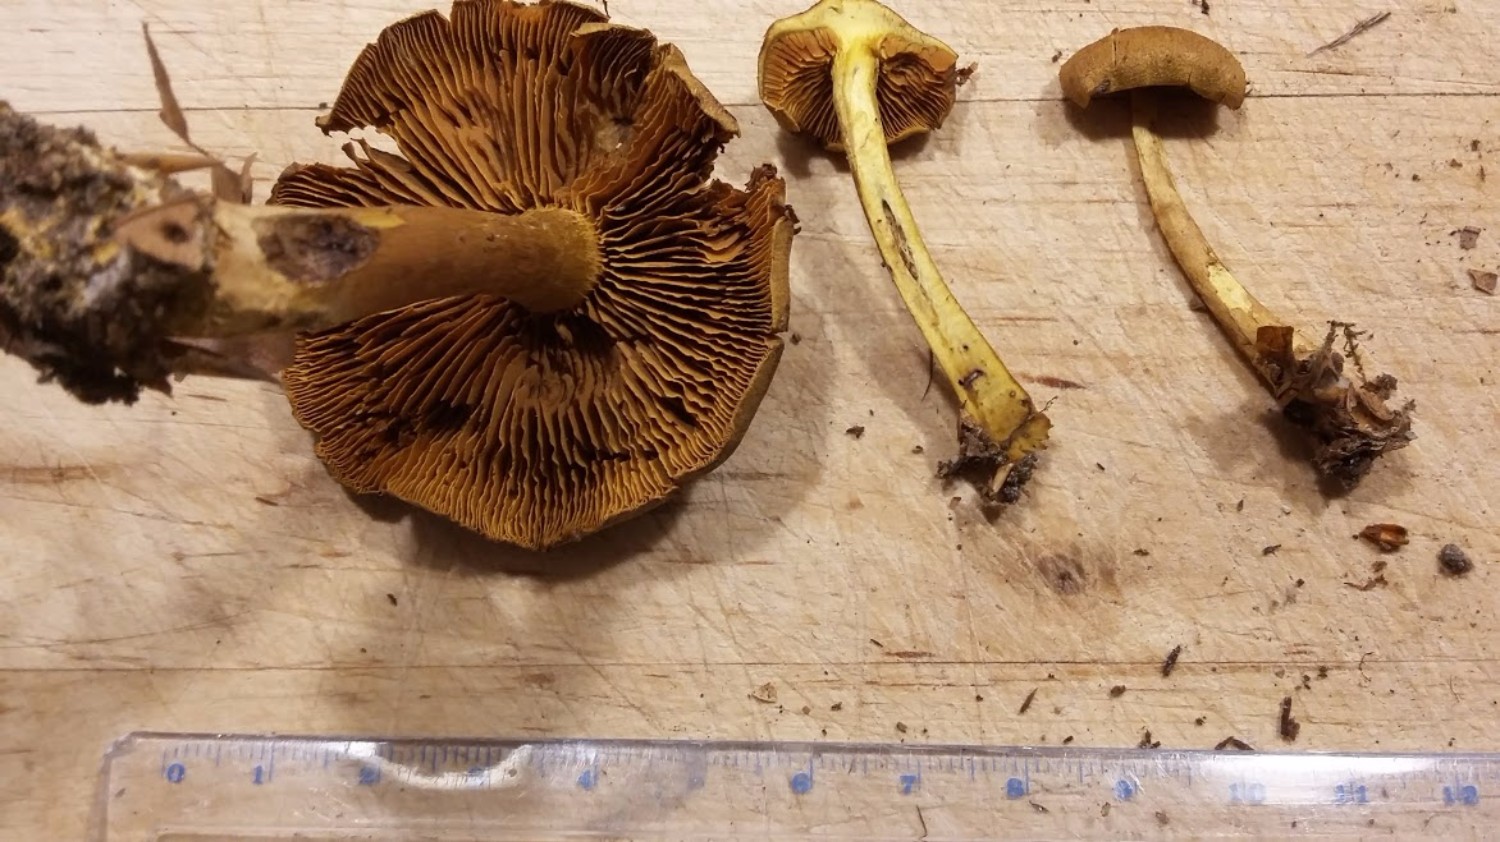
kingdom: Fungi
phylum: Basidiomycota
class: Agaricomycetes
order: Agaricales
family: Cortinariaceae
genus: Cortinarius
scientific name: Cortinarius
